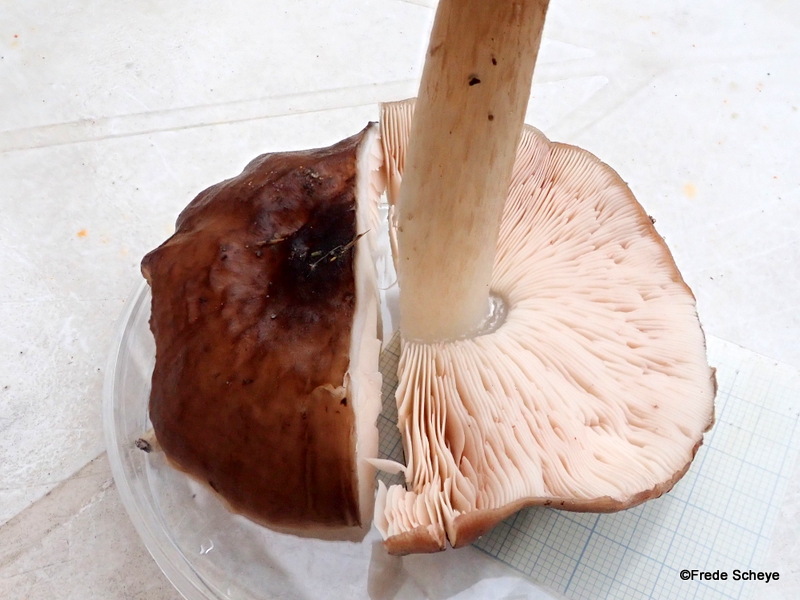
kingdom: Fungi
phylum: Basidiomycota
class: Agaricomycetes
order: Agaricales
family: Pluteaceae
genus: Pluteus
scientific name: Pluteus cervinus
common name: sodfarvet skærmhat
